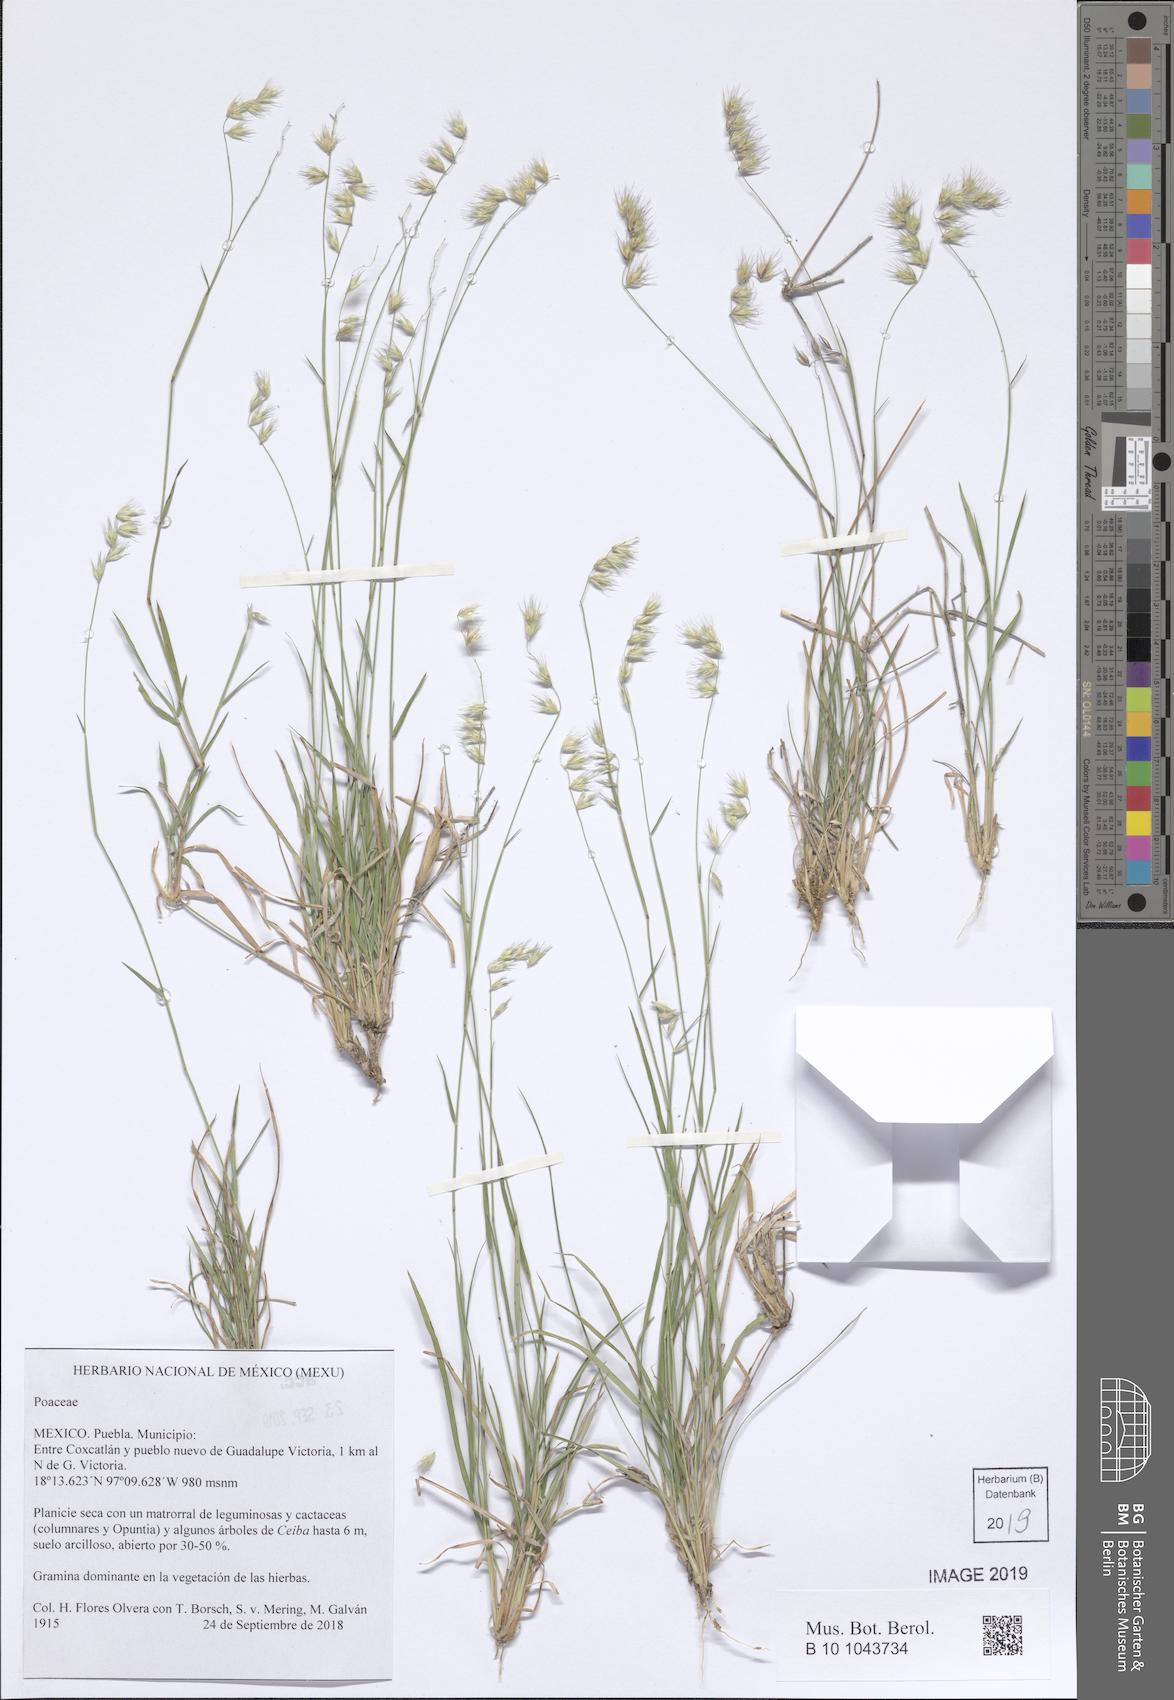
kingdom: Plantae
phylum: Tracheophyta
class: Liliopsida
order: Poales
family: Poaceae
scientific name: Poaceae
